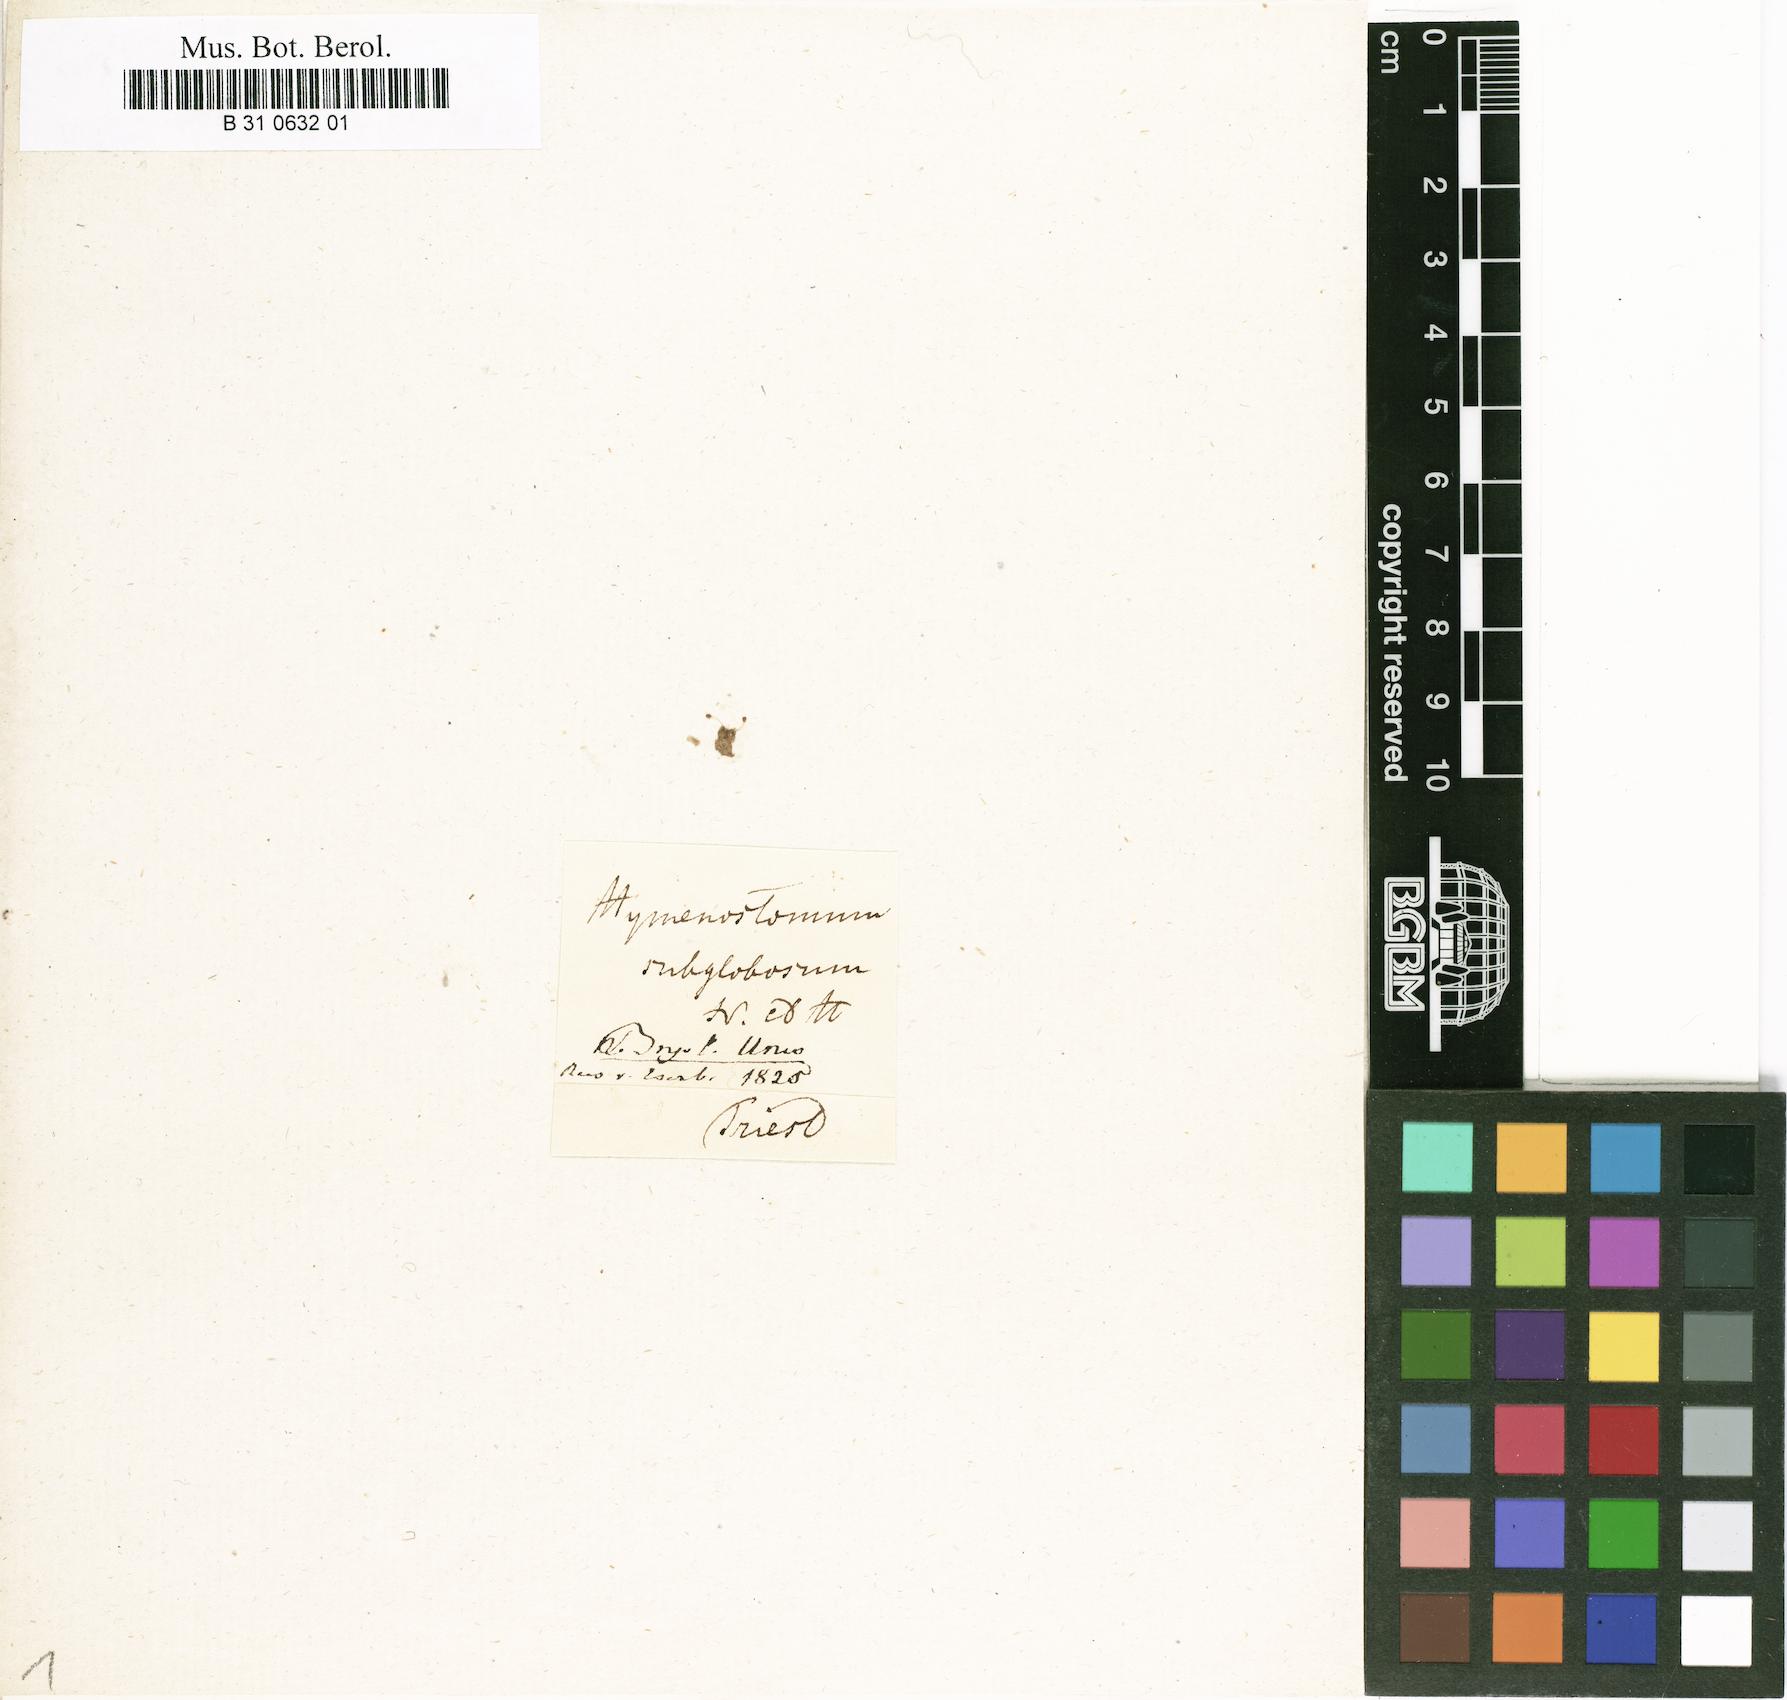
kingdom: Plantae
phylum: Bryophyta
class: Bryopsida
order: Pottiales
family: Pottiaceae
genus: Weissia
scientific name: Weissia controversa
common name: Green-tufted stubble moss
